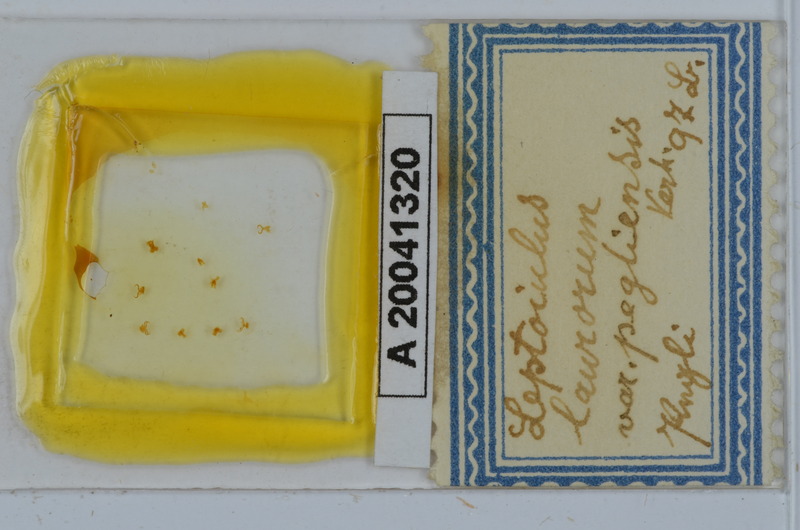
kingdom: Animalia
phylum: Arthropoda
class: Diplopoda
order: Julida
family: Julidae
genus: Leptoiulus
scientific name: Leptoiulus piceus
